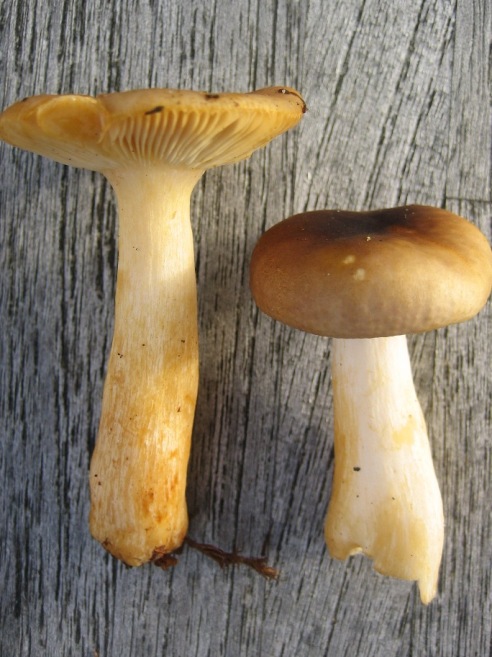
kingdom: Fungi
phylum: Basidiomycota
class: Agaricomycetes
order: Russulales
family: Russulaceae
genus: Russula
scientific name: Russula puellaris
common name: gulstokket skørhat
